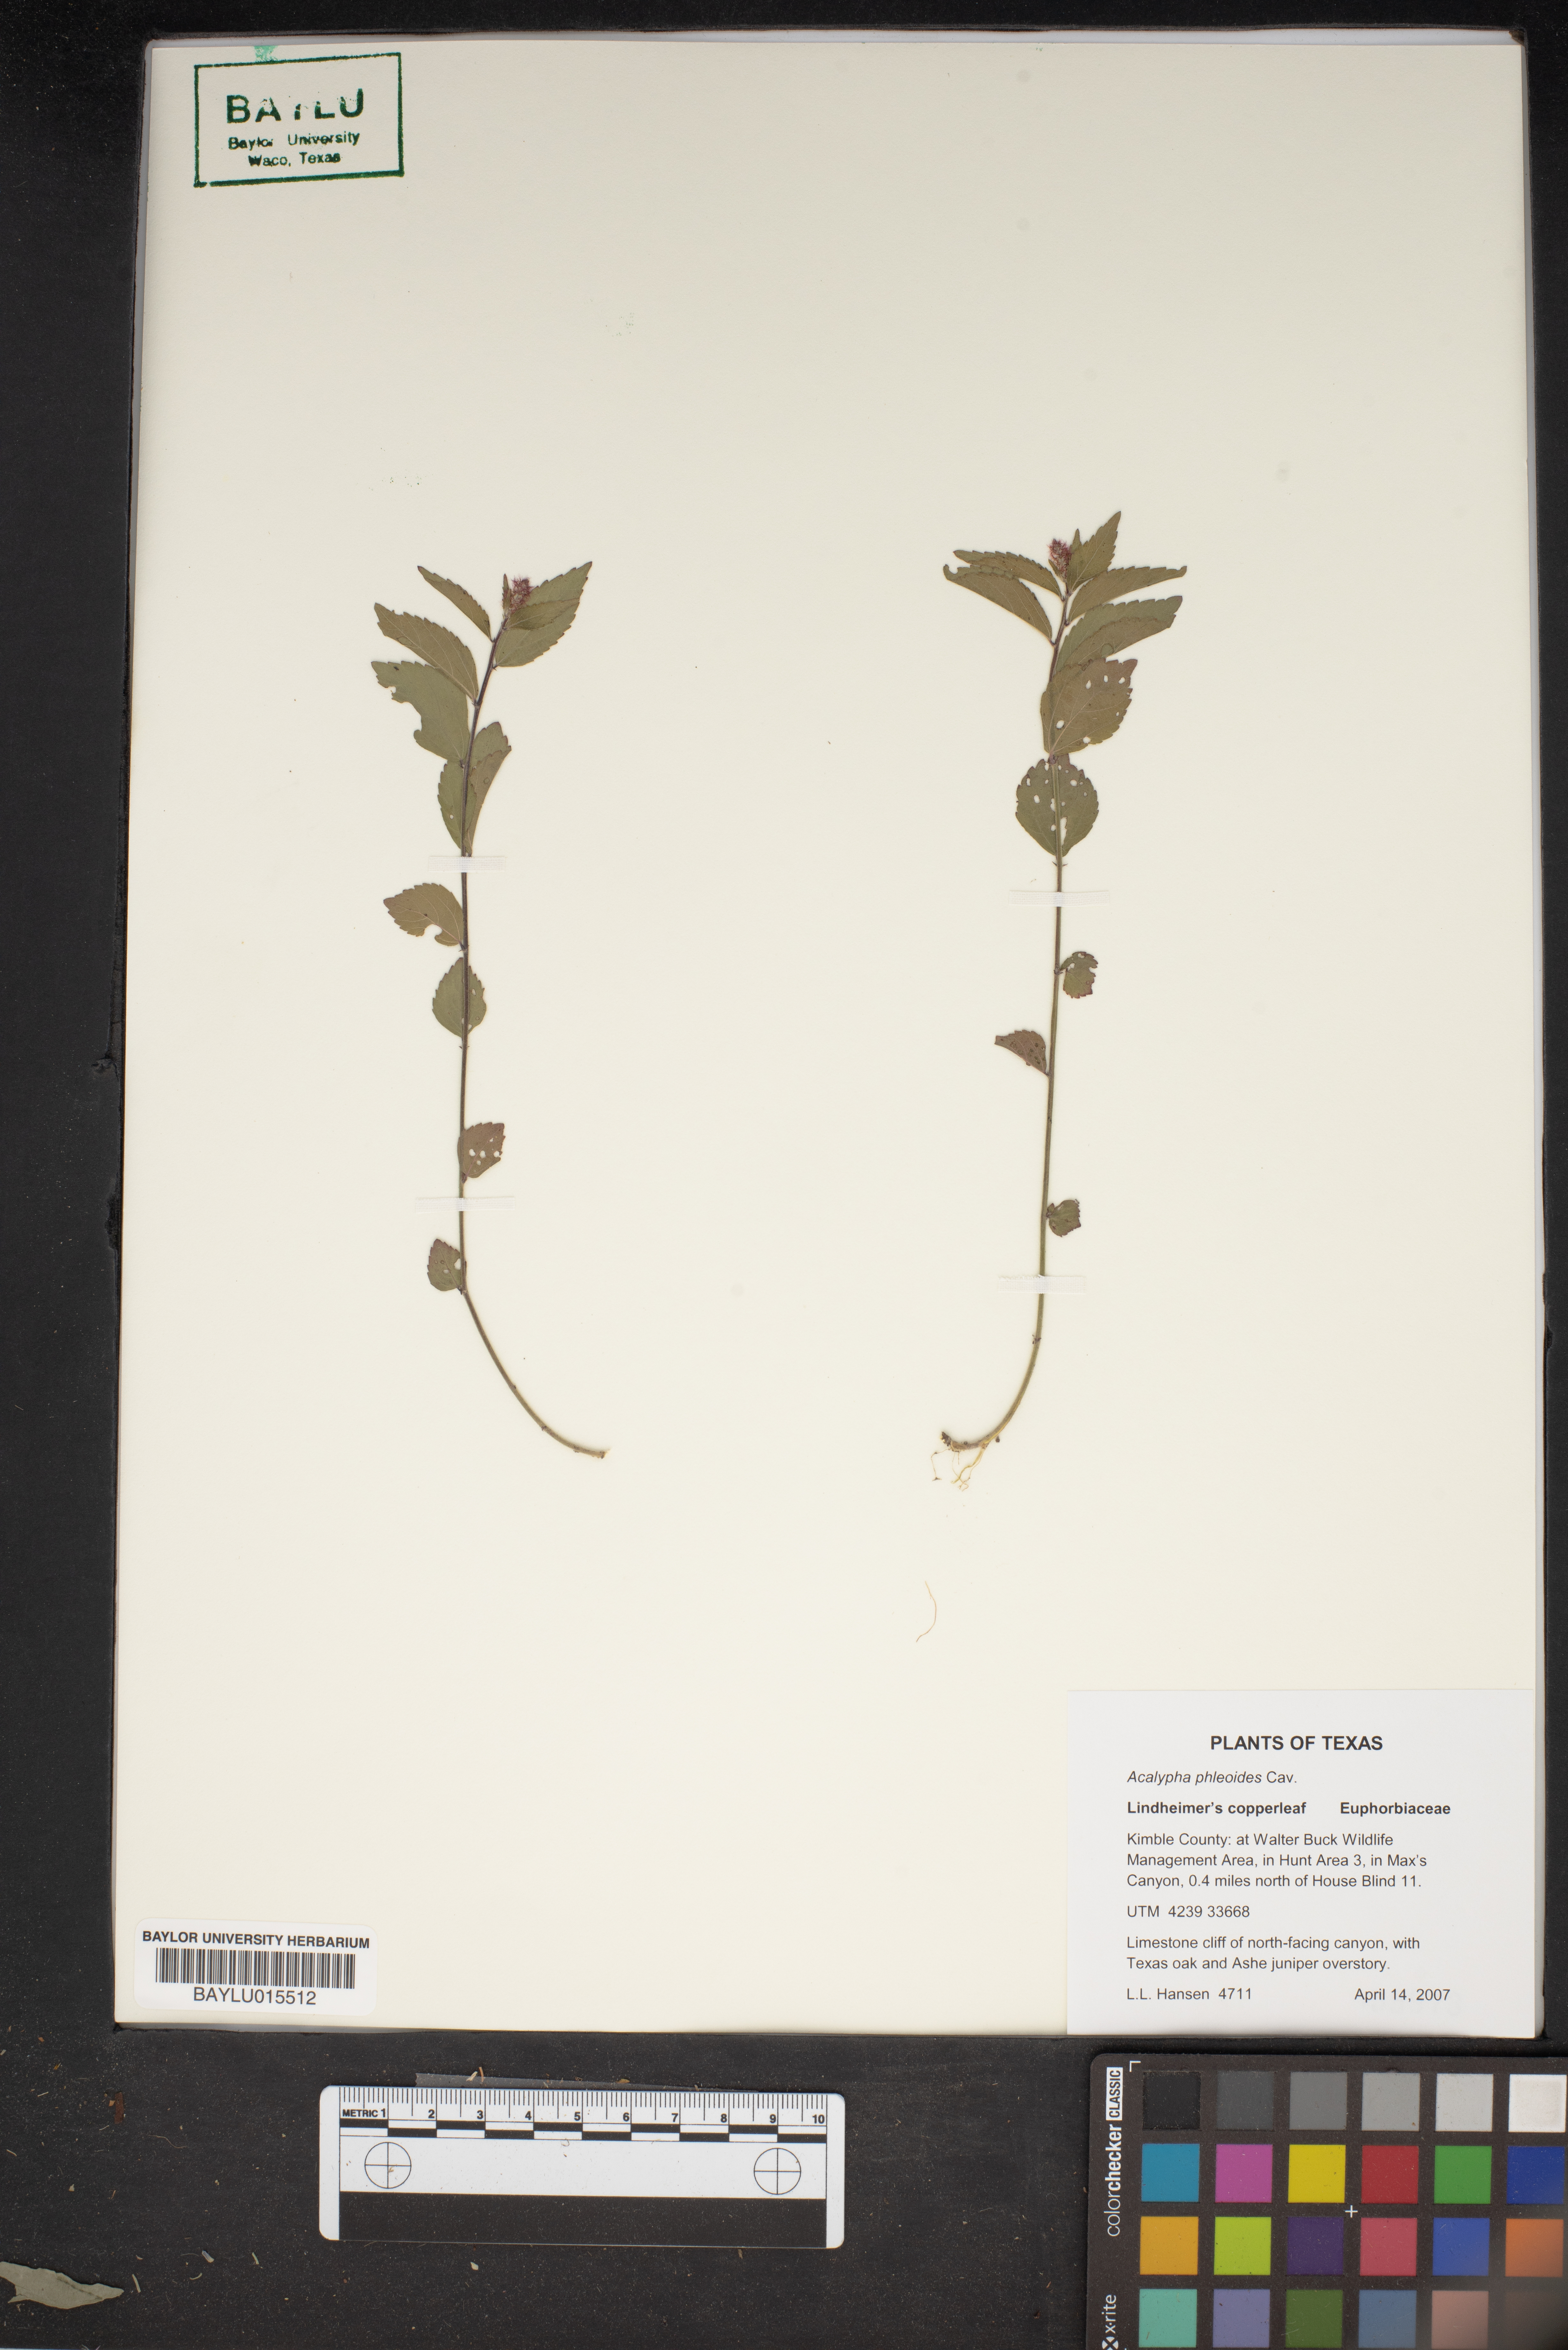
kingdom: Plantae
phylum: Tracheophyta
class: Magnoliopsida
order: Malpighiales
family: Euphorbiaceae
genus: Acalypha
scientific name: Acalypha phleoides
